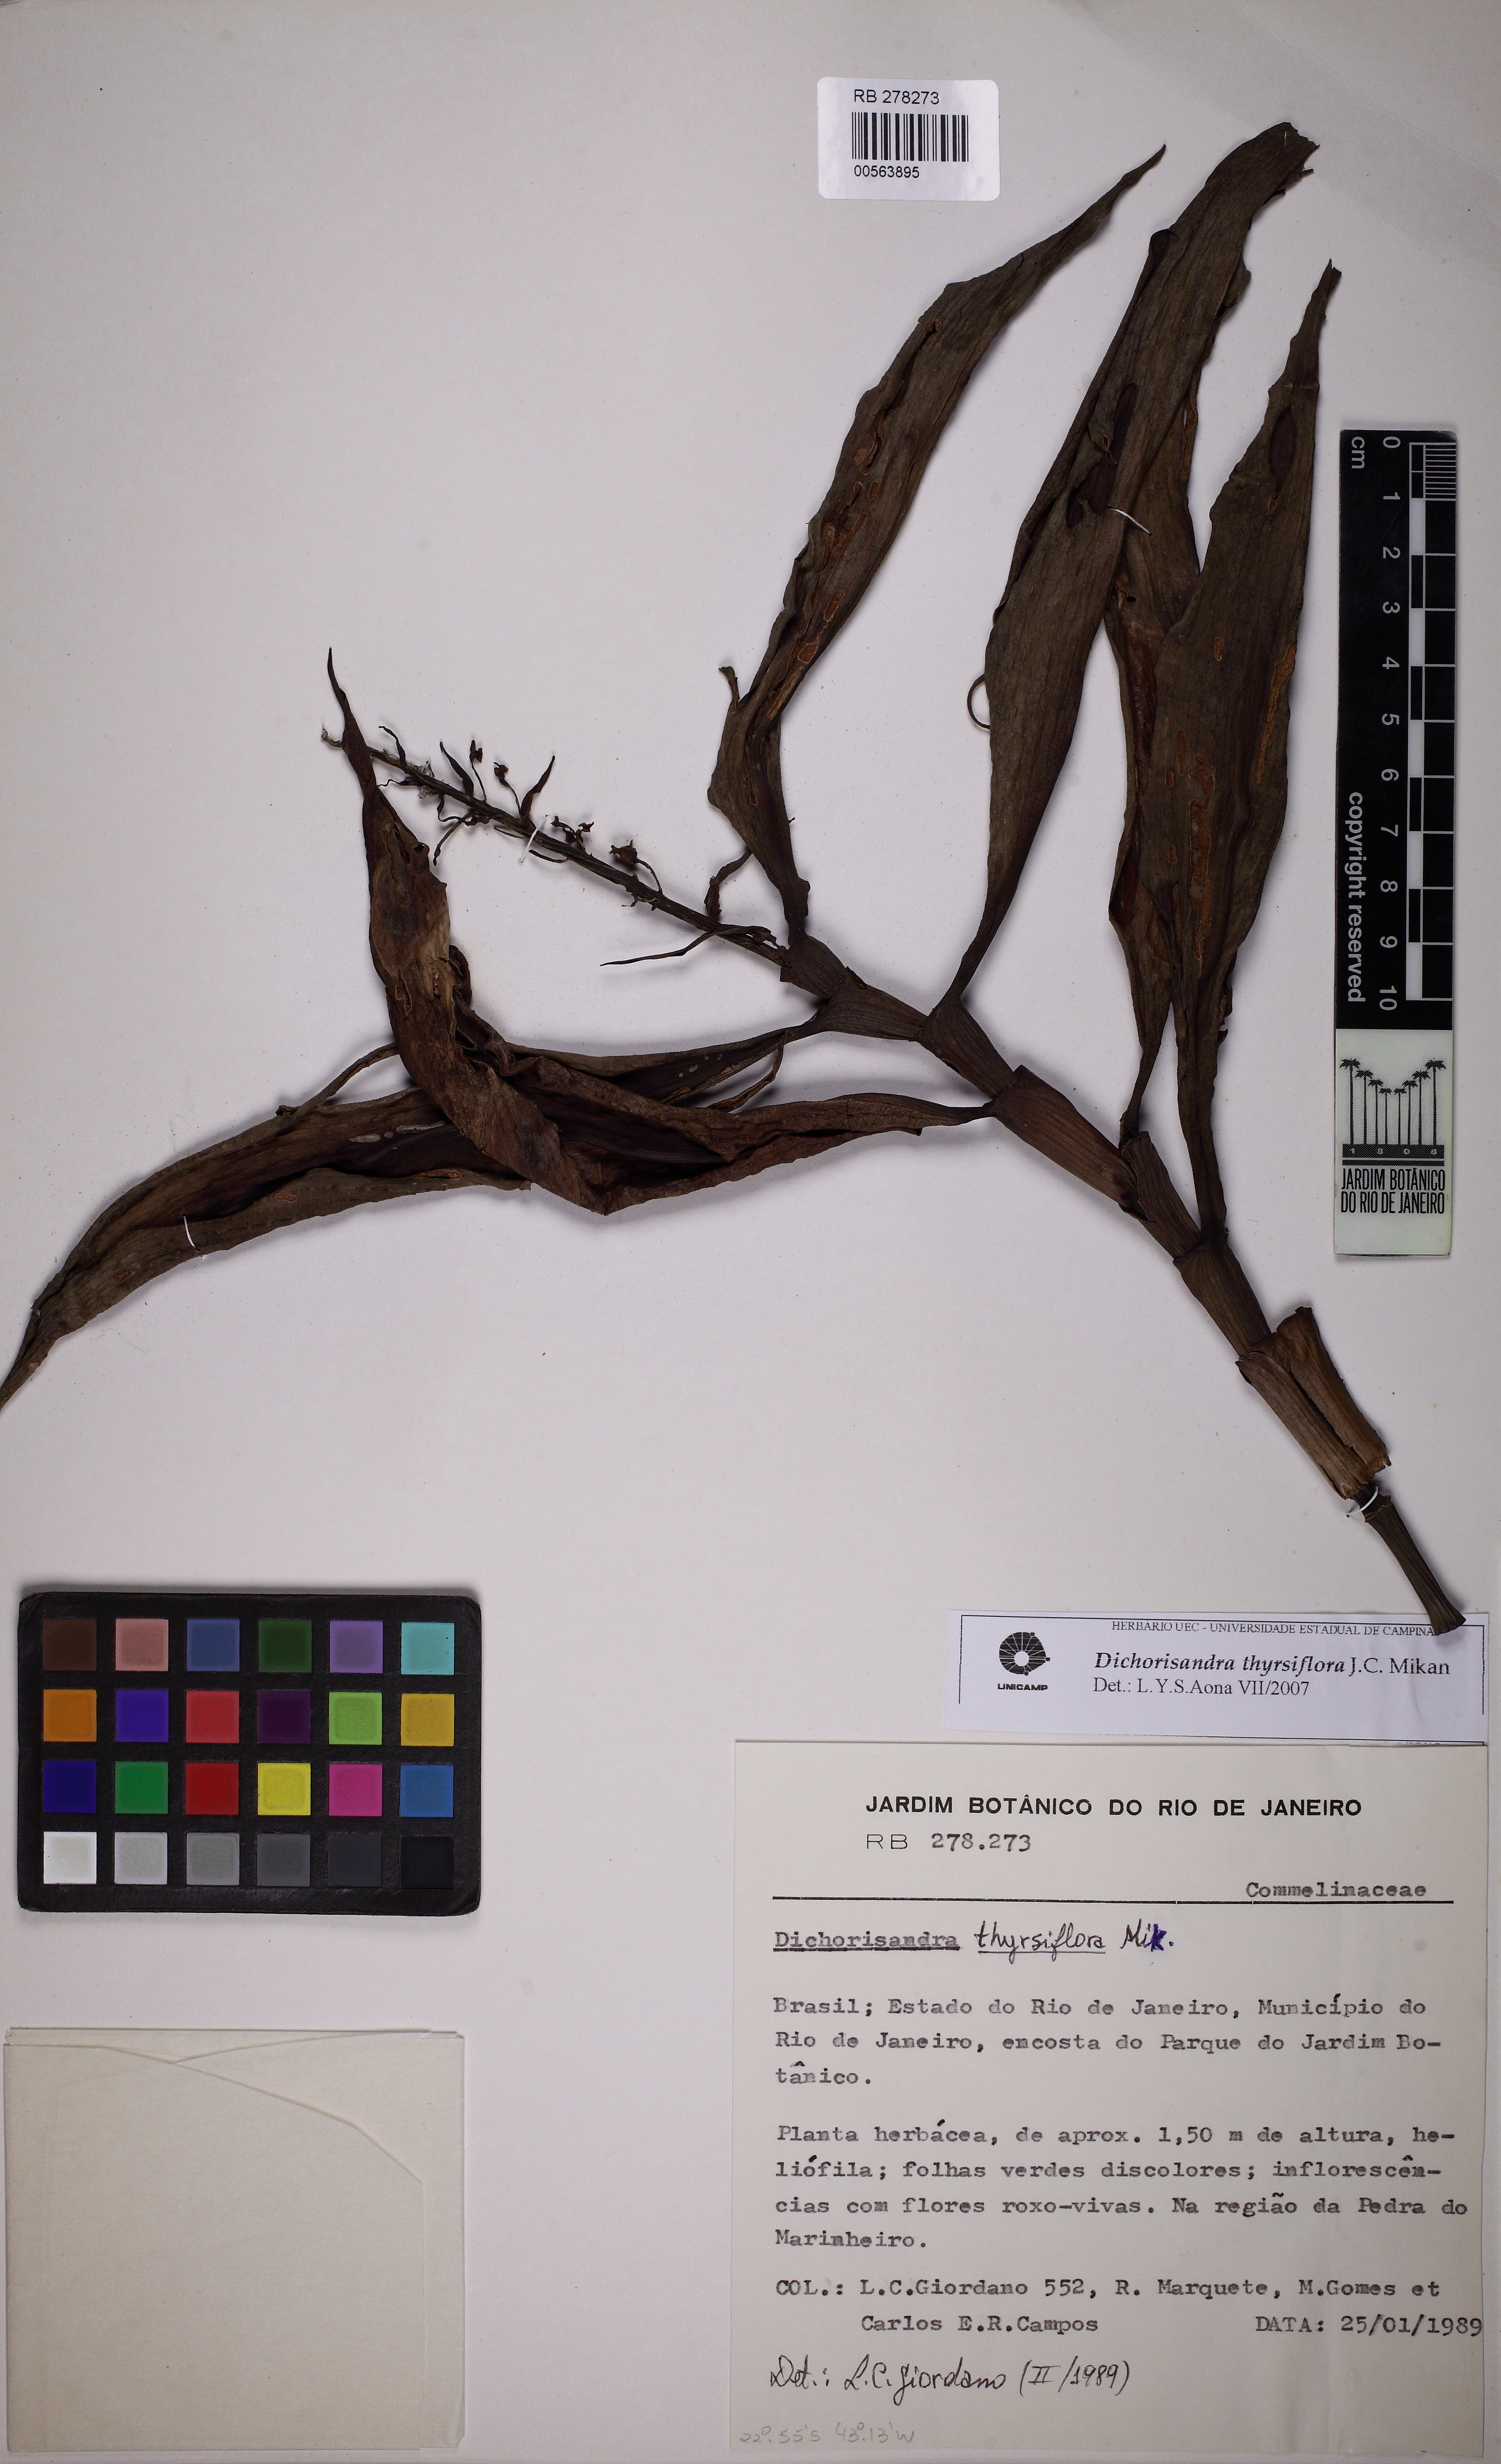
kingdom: Plantae
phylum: Tracheophyta
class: Liliopsida
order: Commelinales
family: Commelinaceae
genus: Dichorisandra
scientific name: Dichorisandra thyrsiflora
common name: Blue-ginger
